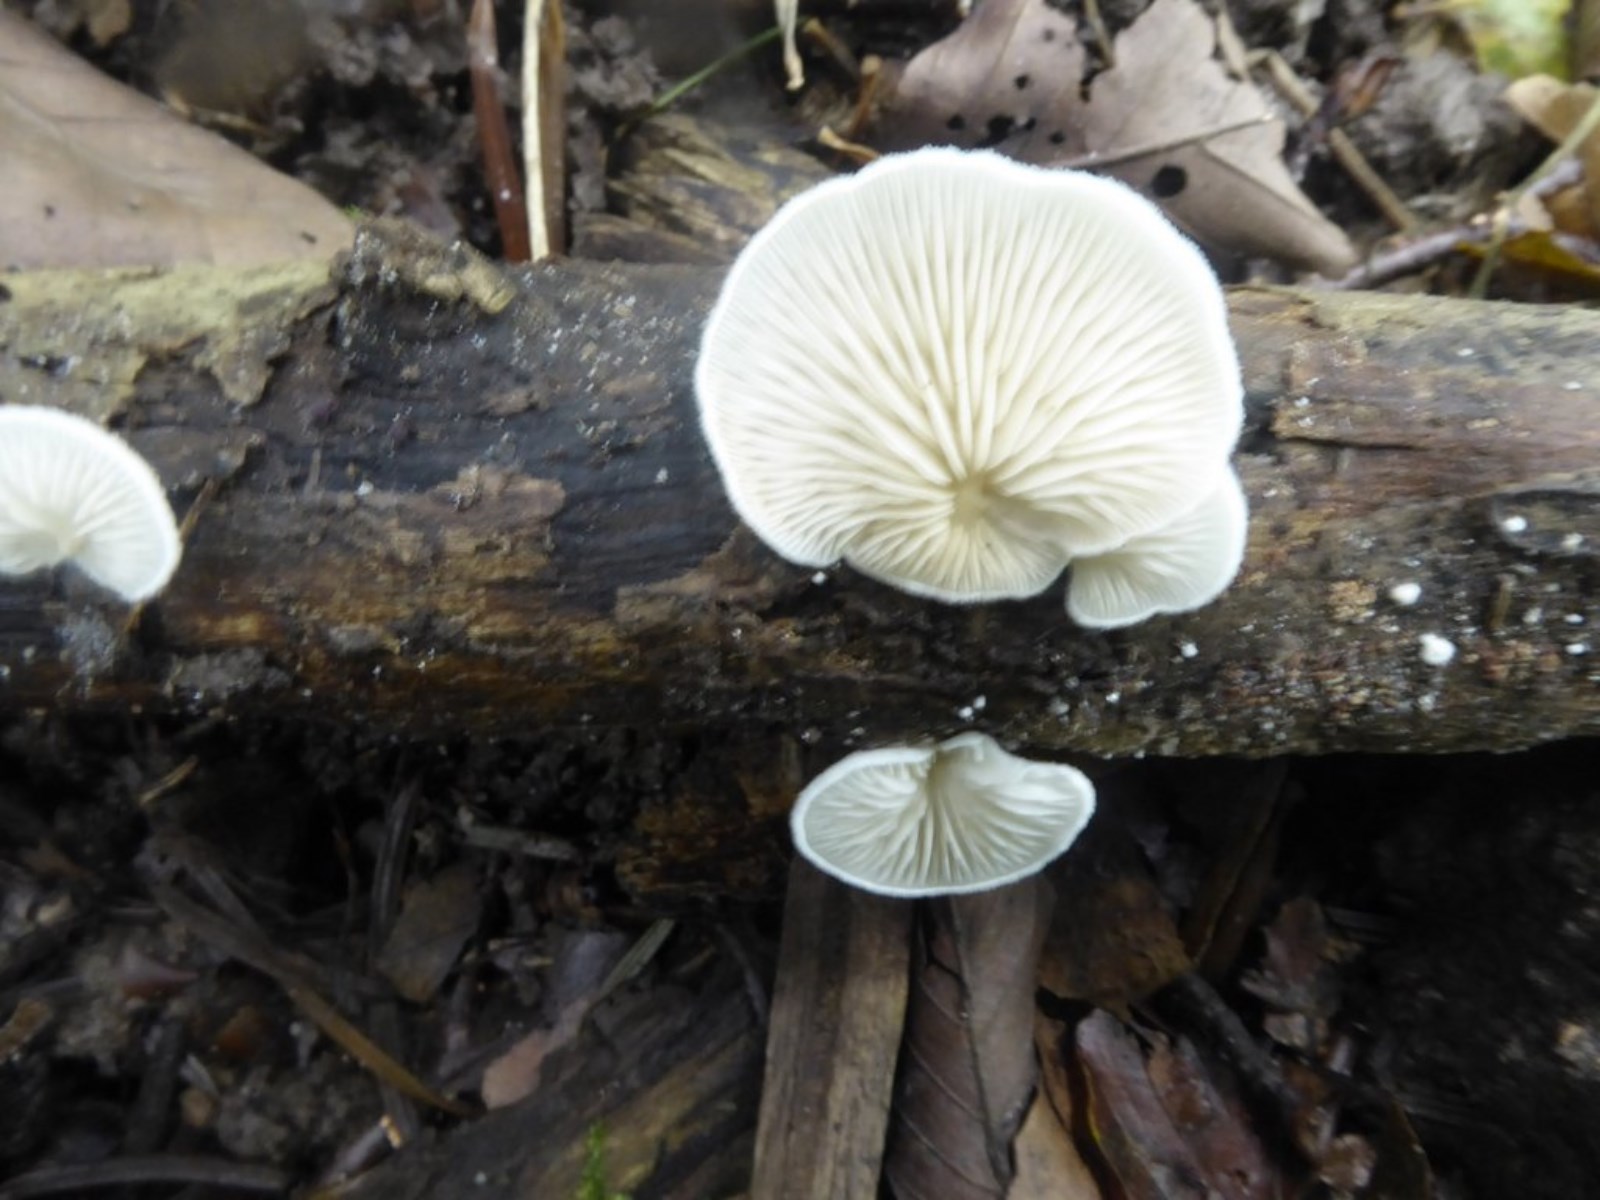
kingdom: Fungi
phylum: Basidiomycota
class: Agaricomycetes
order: Agaricales
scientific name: Agaricales
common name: champignonordenen
